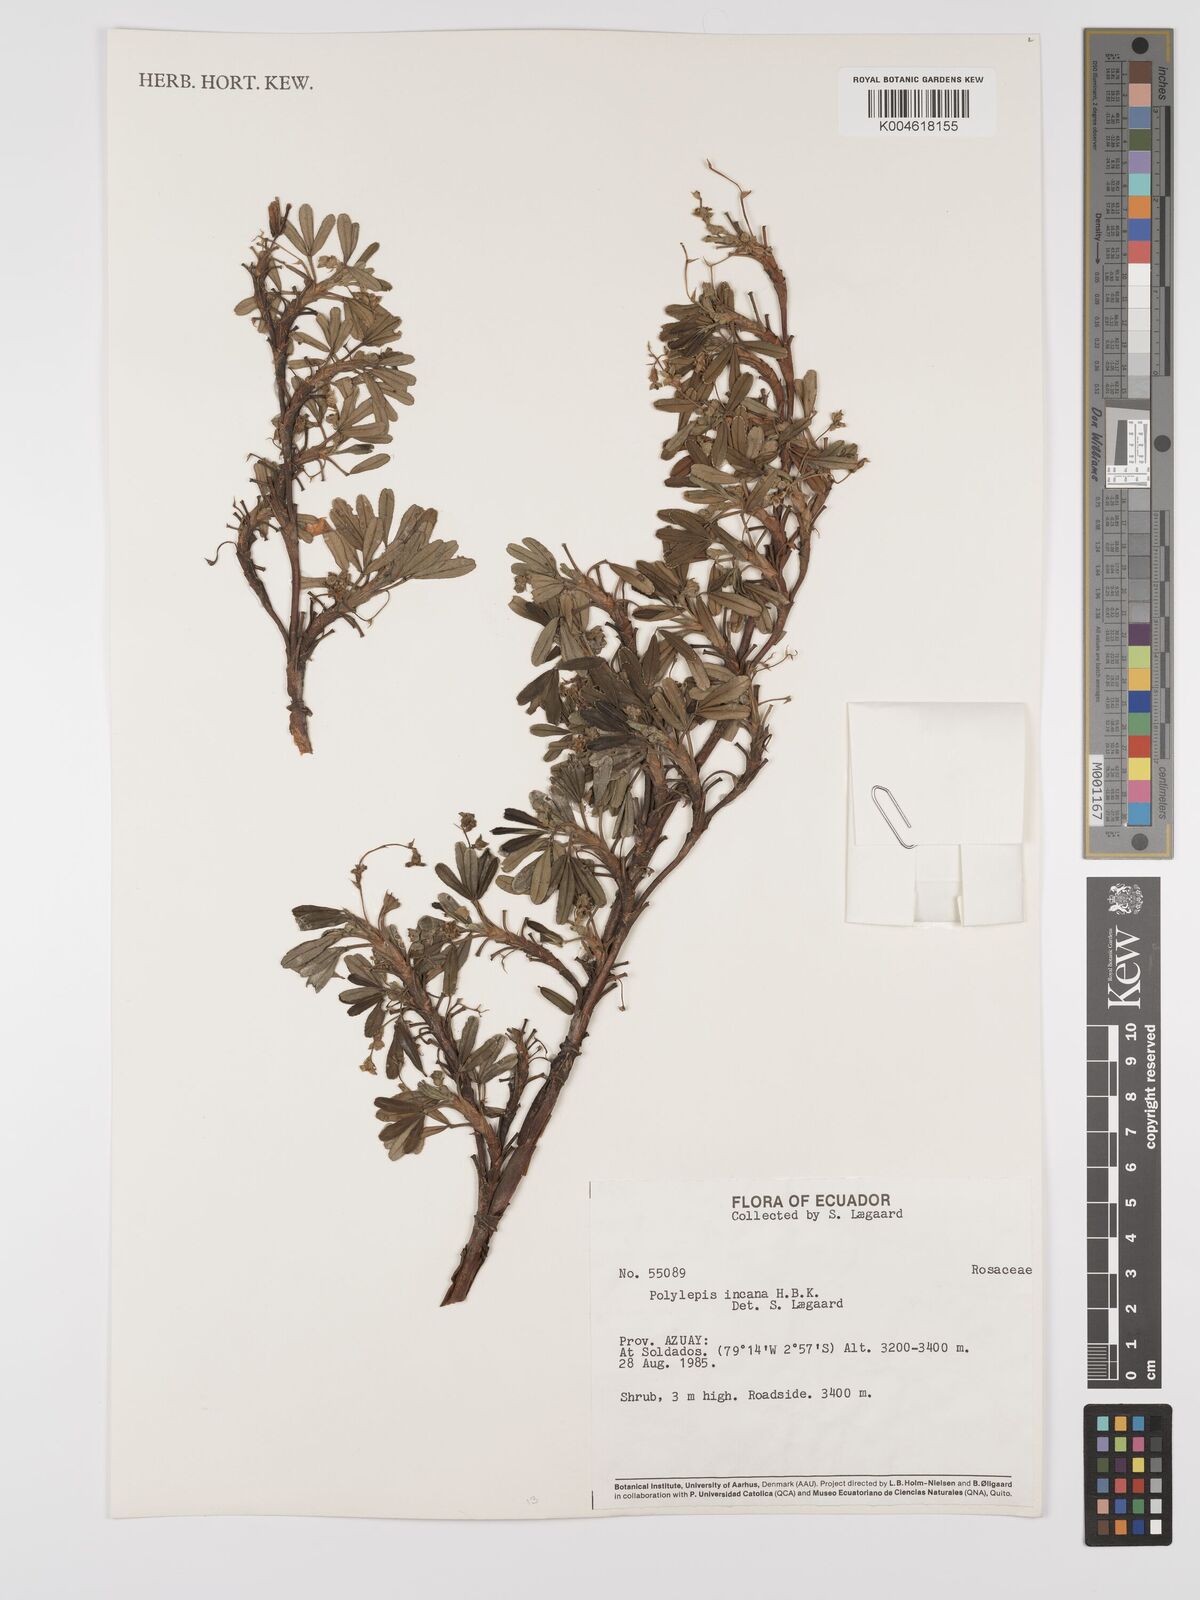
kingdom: Plantae
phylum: Tracheophyta
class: Magnoliopsida
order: Rosales
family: Rosaceae
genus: Polylepis
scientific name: Polylepis incana
